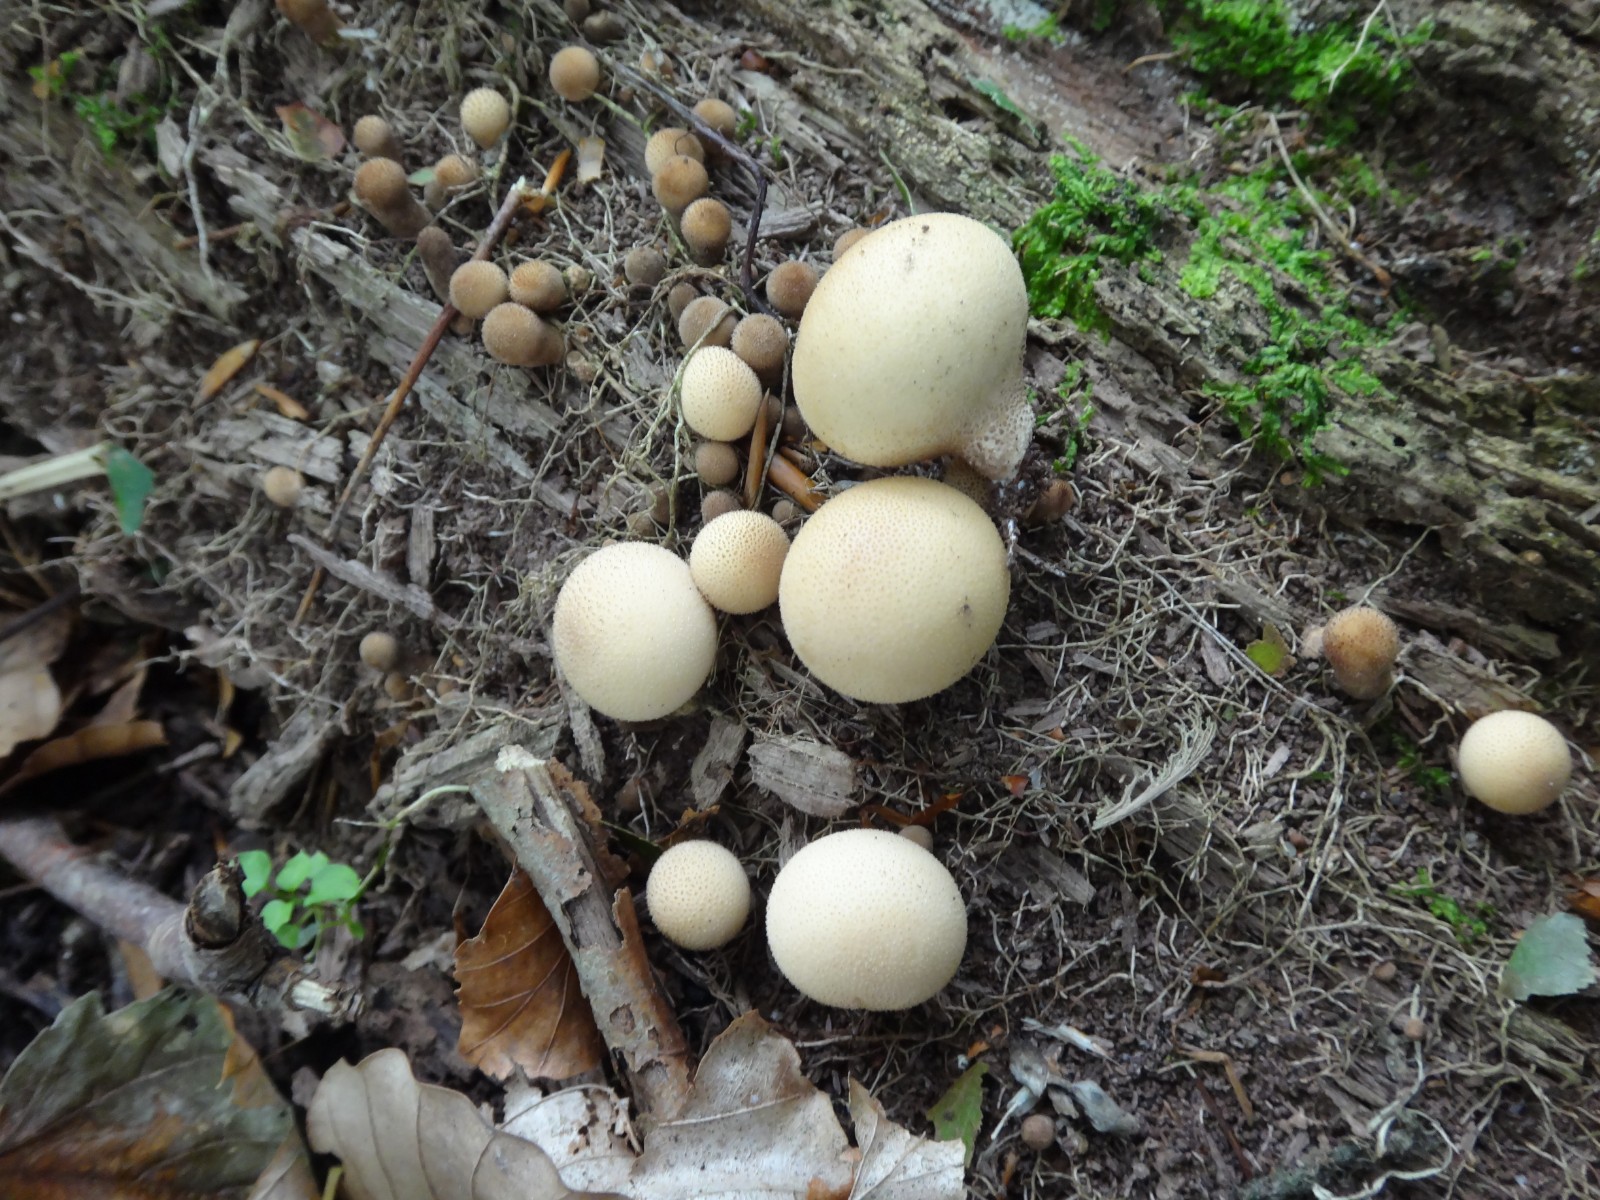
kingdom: Fungi
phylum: Basidiomycota
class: Agaricomycetes
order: Agaricales
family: Lycoperdaceae
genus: Apioperdon
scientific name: Apioperdon pyriforme
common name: pære-støvbold
